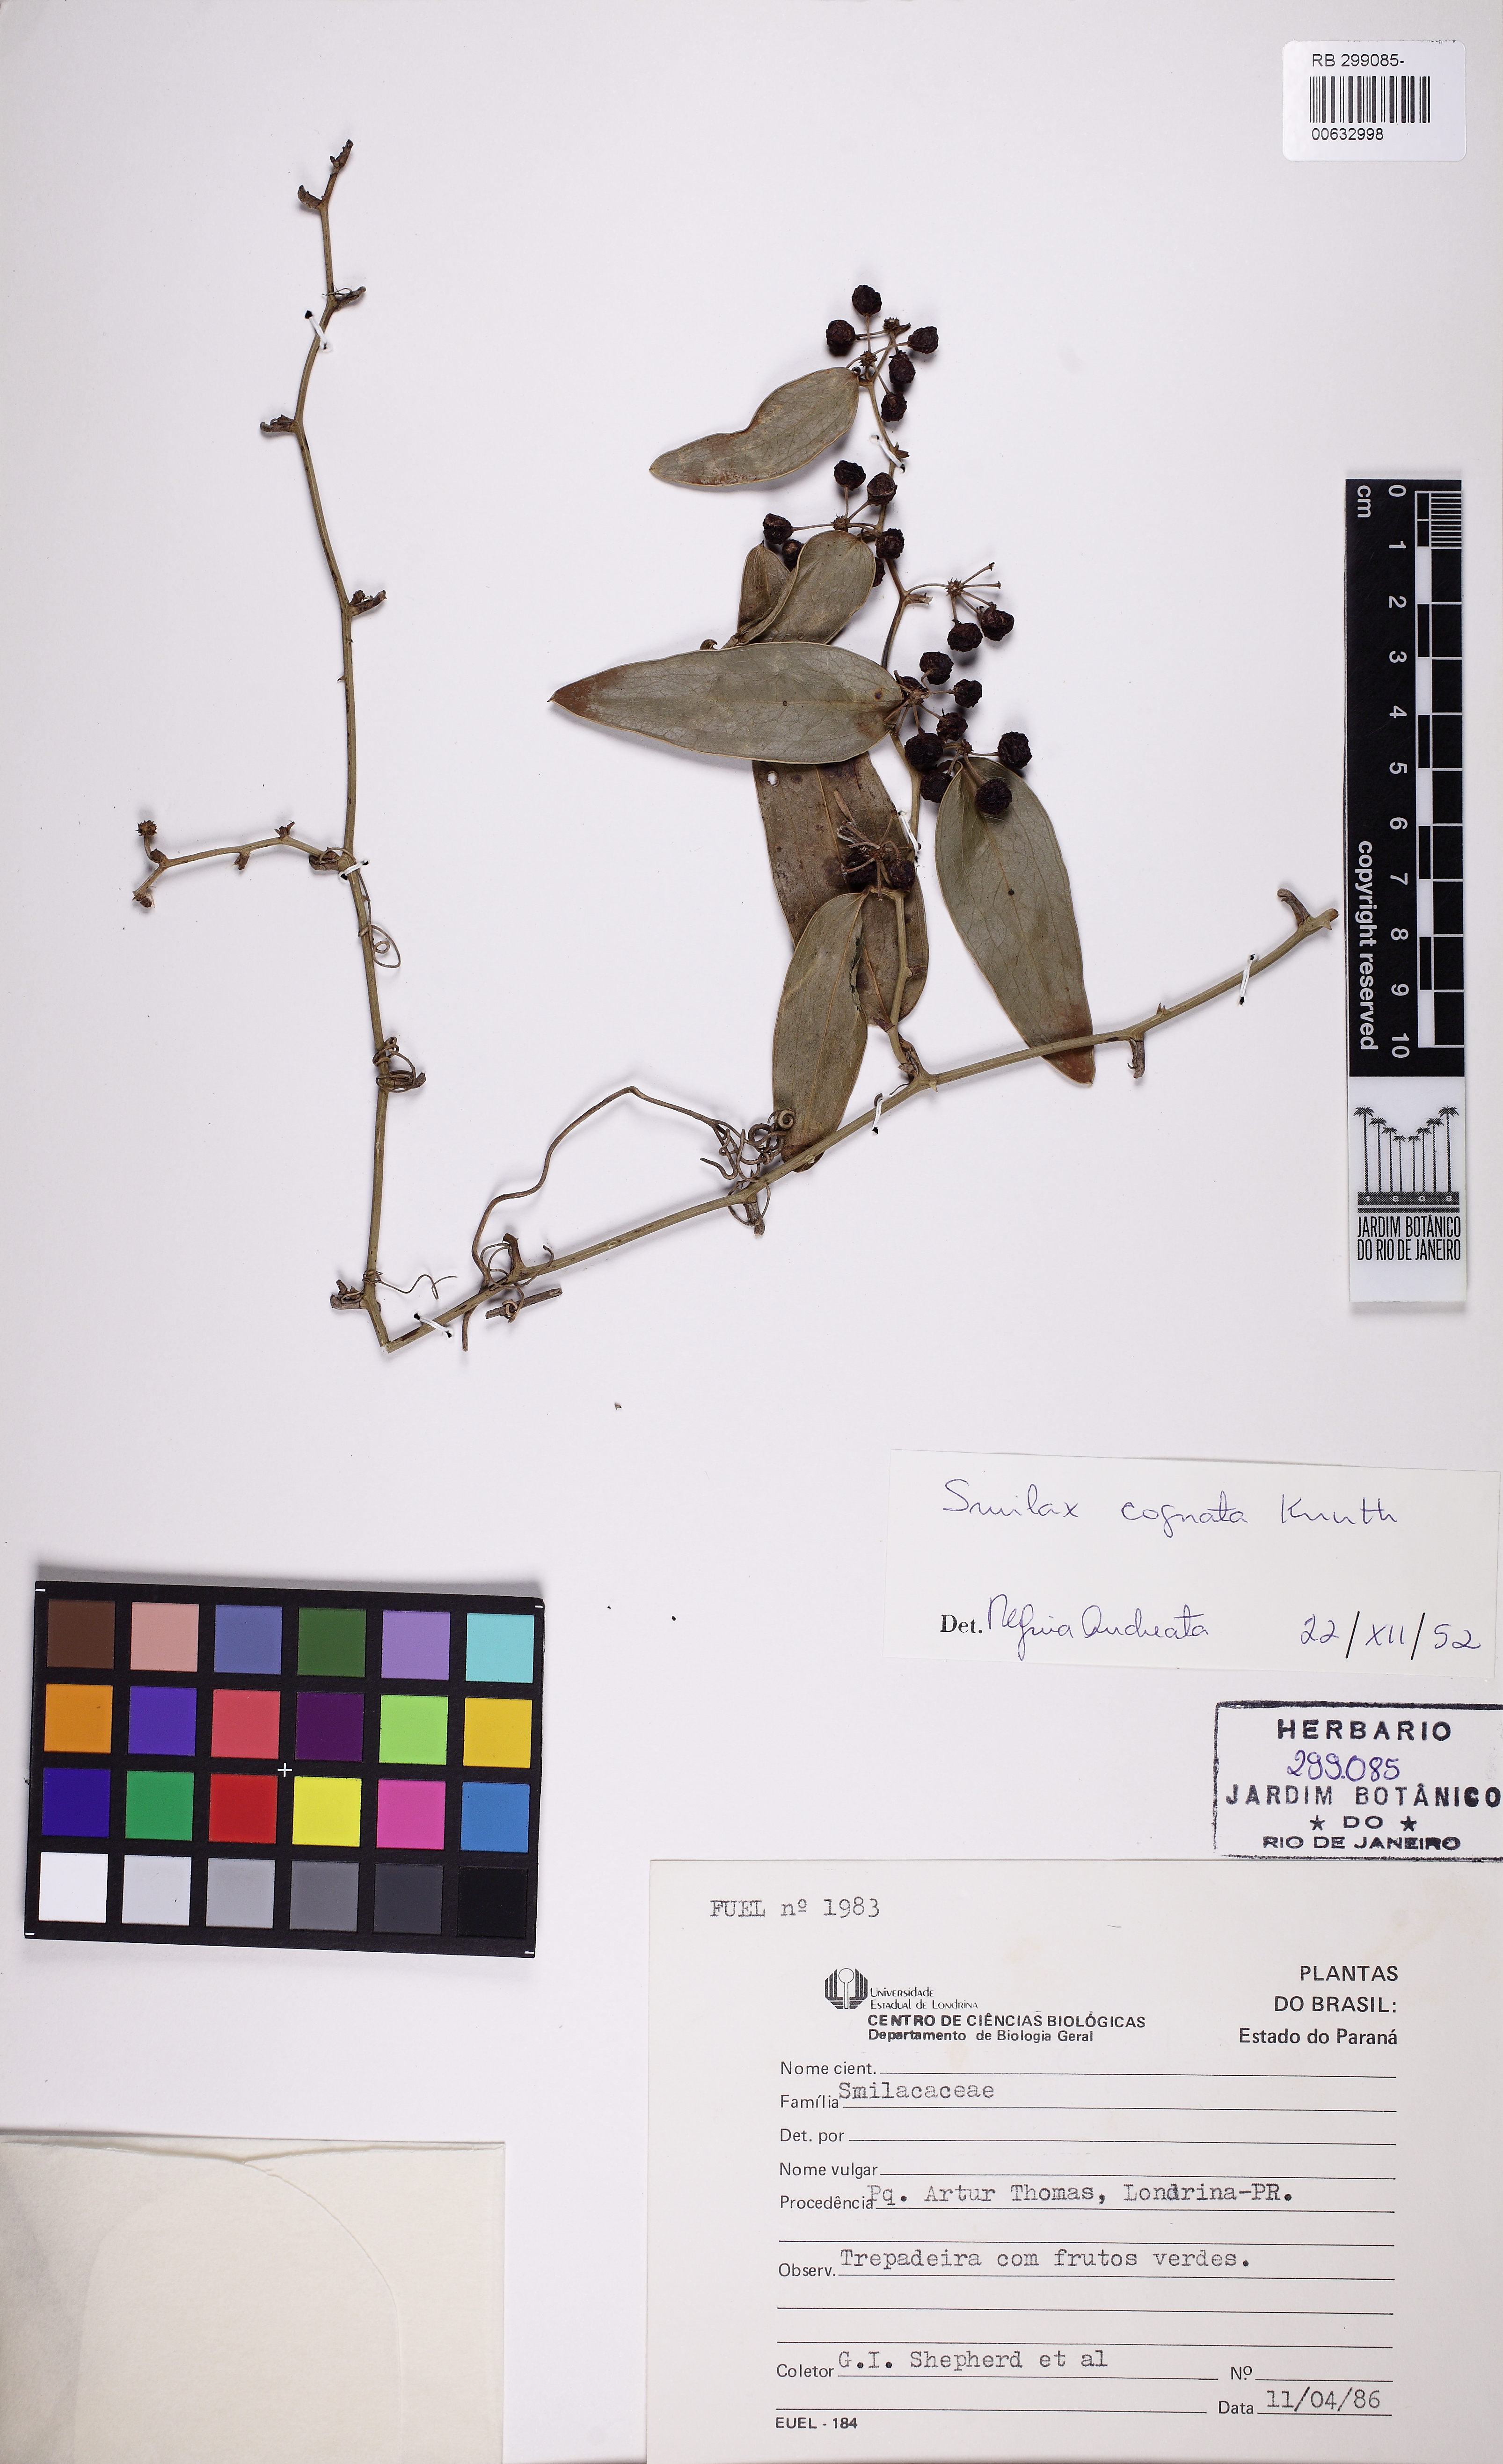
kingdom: Plantae
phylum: Tracheophyta
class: Liliopsida
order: Liliales
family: Smilacaceae
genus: Smilax
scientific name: Smilax cognata
